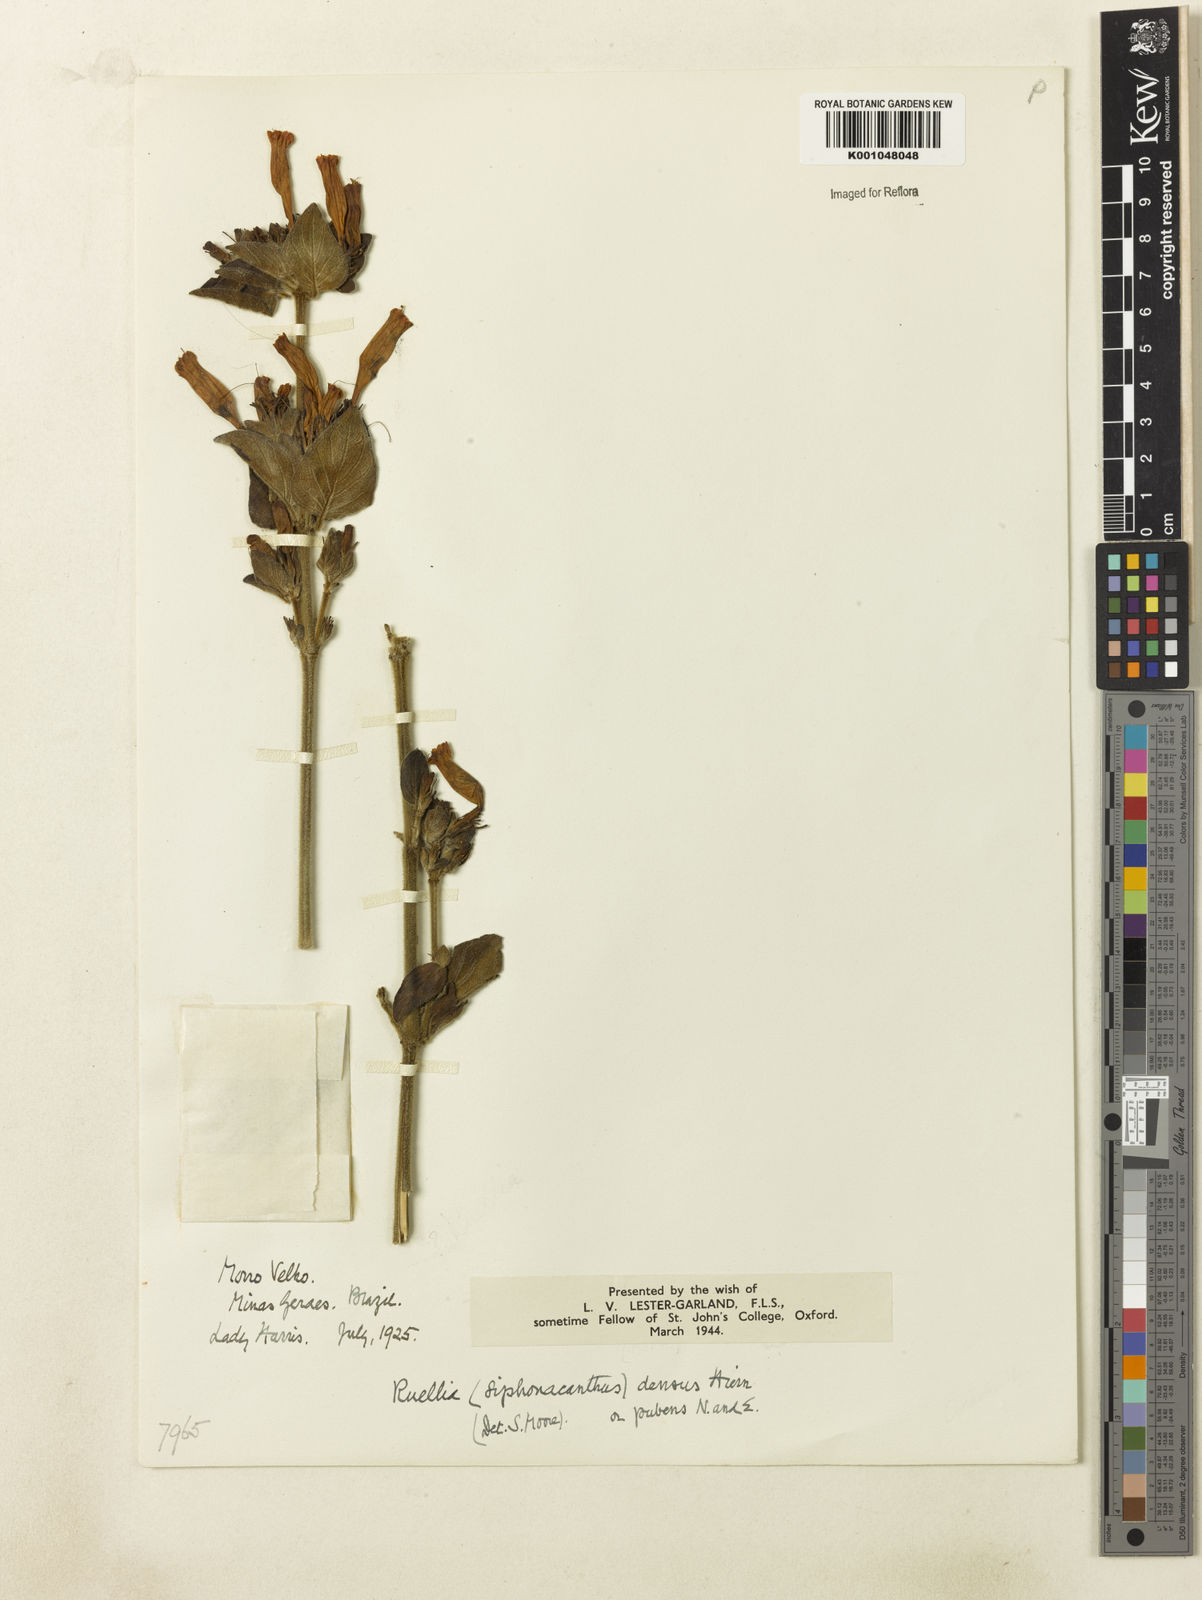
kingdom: Plantae
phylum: Tracheophyta
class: Magnoliopsida
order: Lamiales
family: Acanthaceae
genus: Ruellia
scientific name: Ruellia densa
